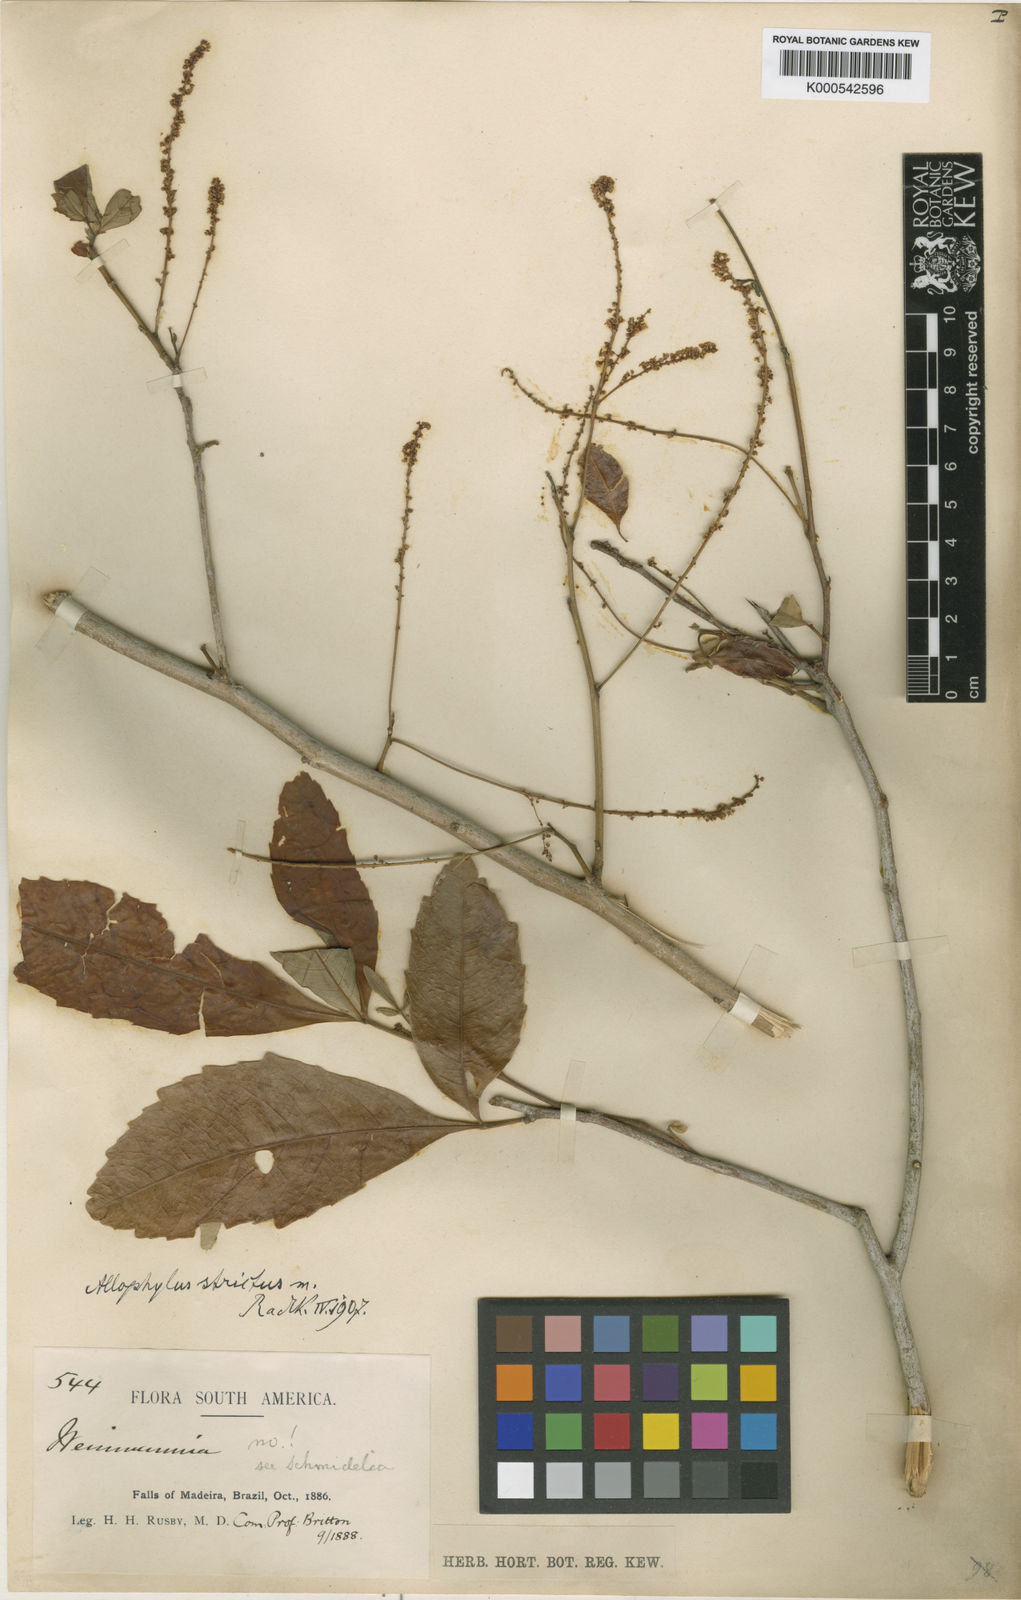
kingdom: Plantae
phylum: Tracheophyta
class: Magnoliopsida
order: Sapindales
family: Sapindaceae
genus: Allophylus
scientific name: Allophylus strictus
